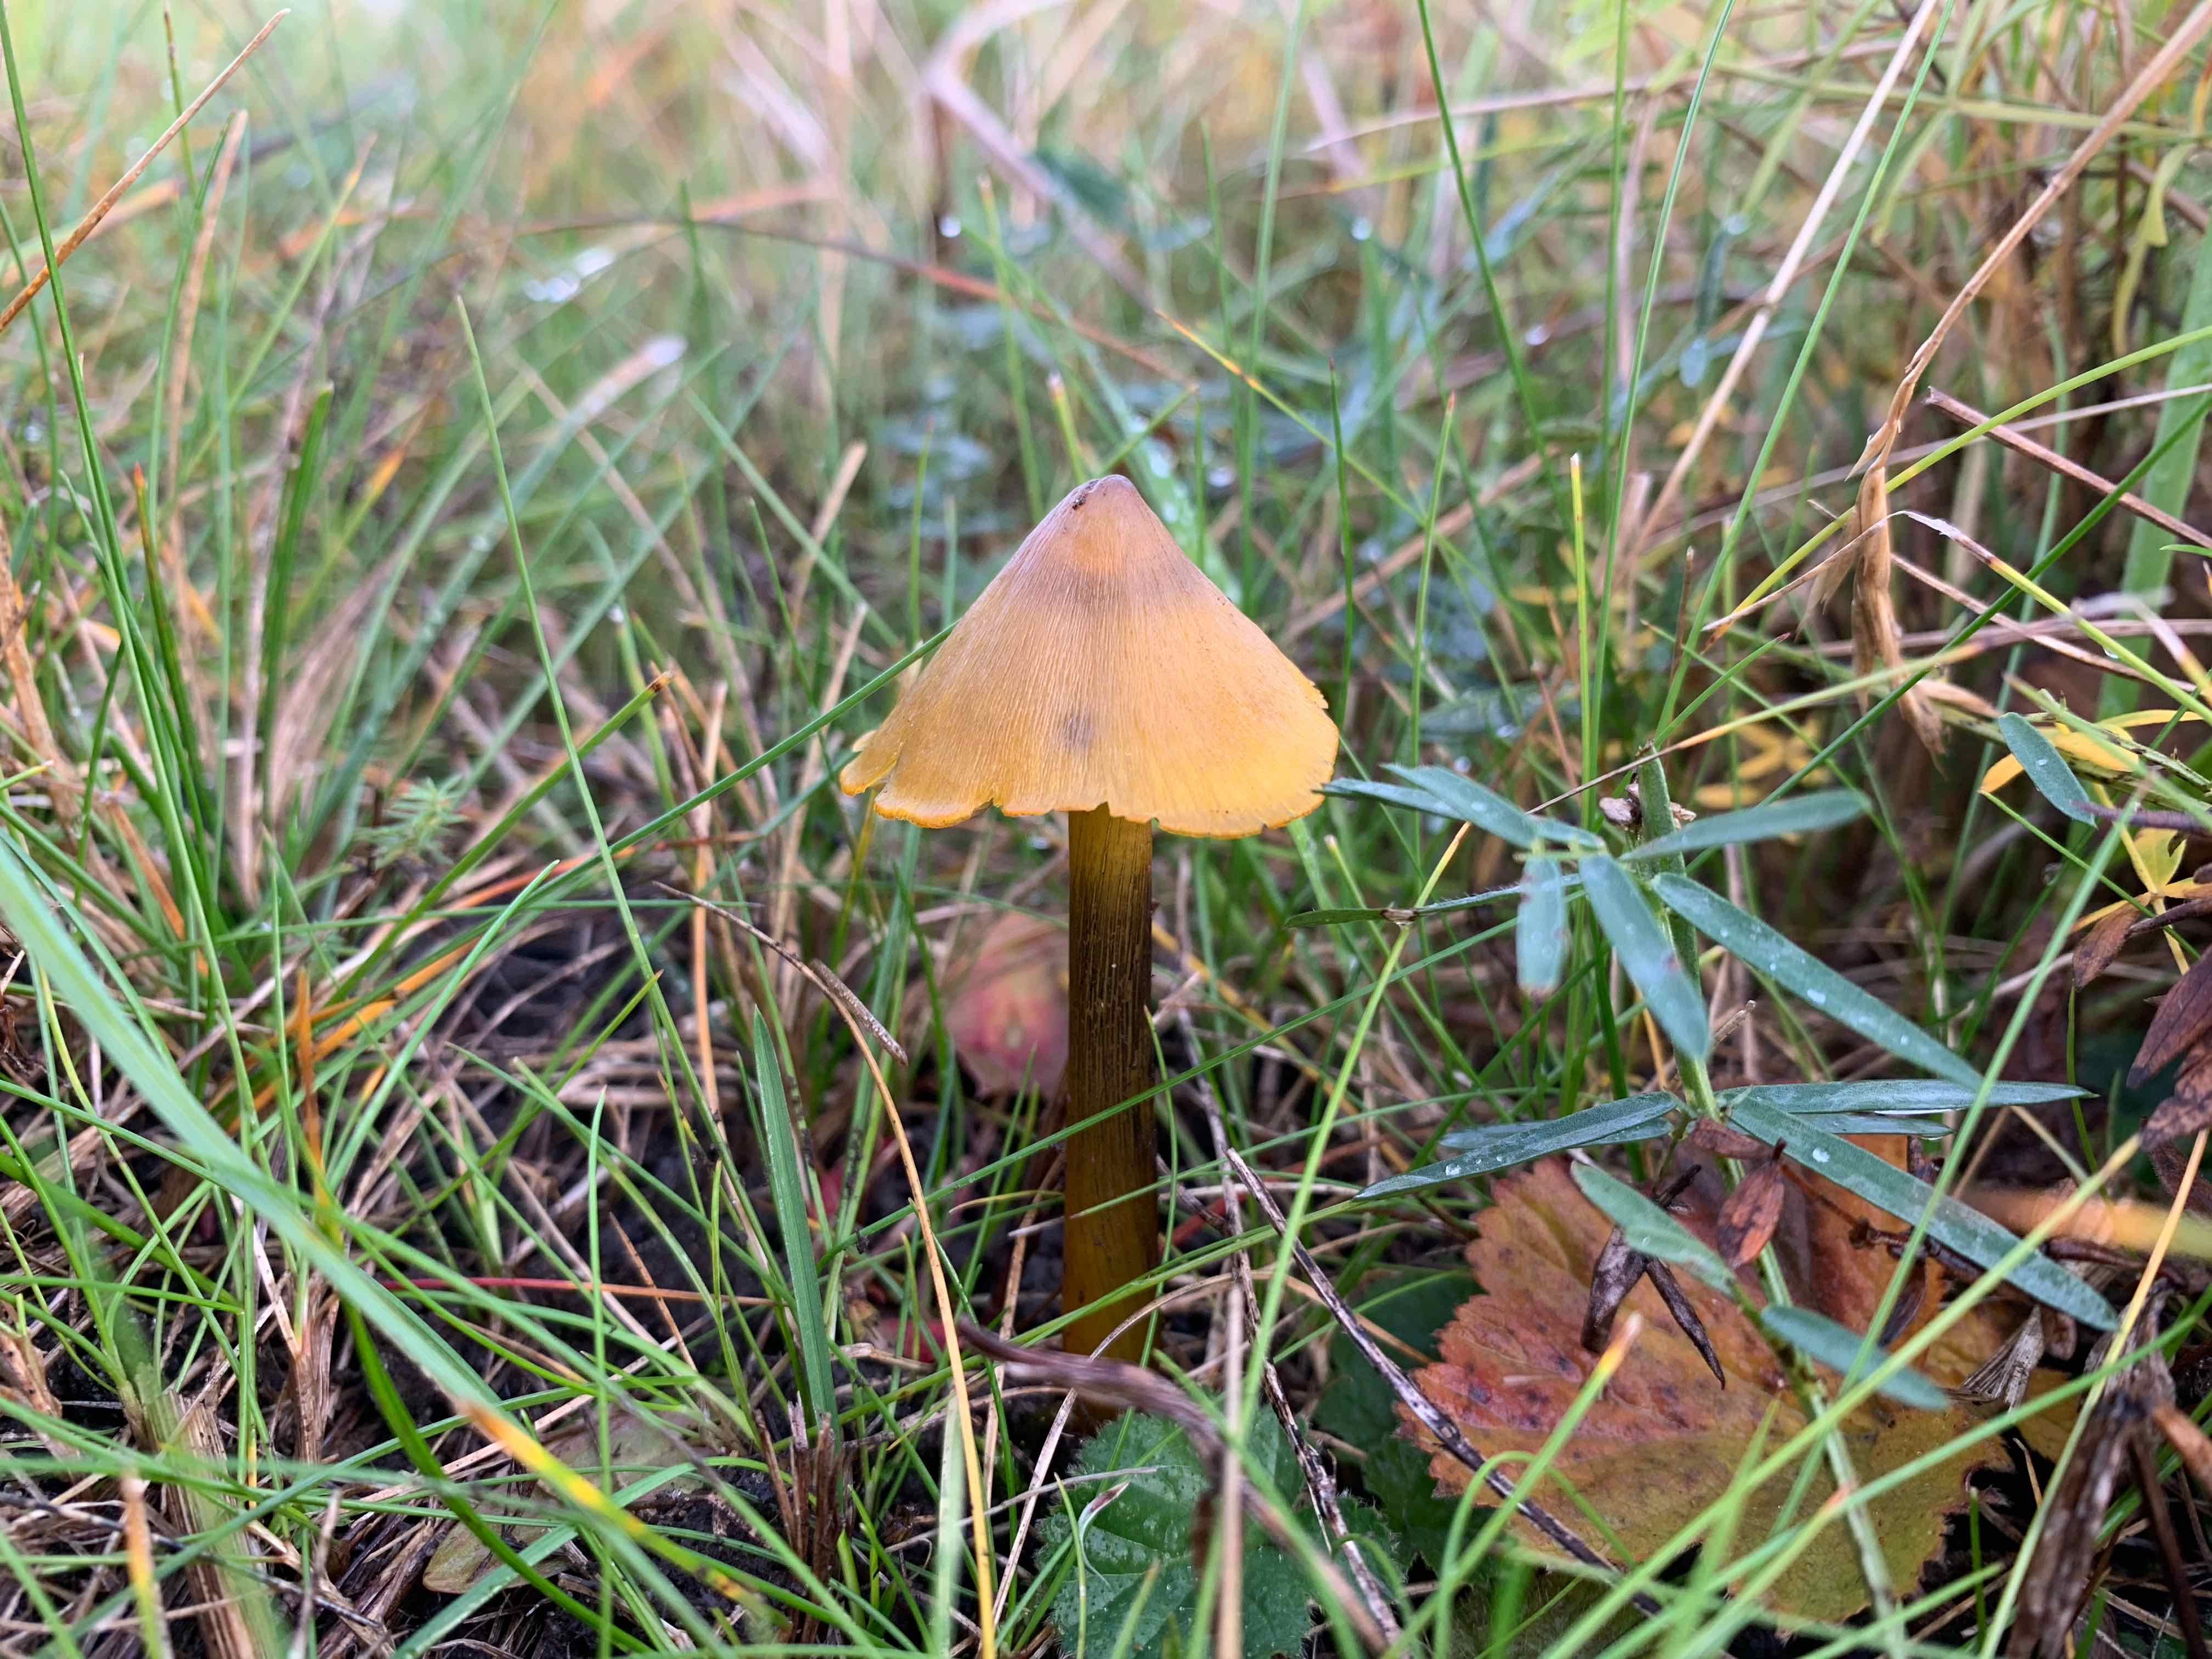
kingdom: Fungi
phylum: Basidiomycota
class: Agaricomycetes
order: Agaricales
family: Hygrophoraceae
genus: Hygrocybe
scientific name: Hygrocybe conica
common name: kegle-vokshat
